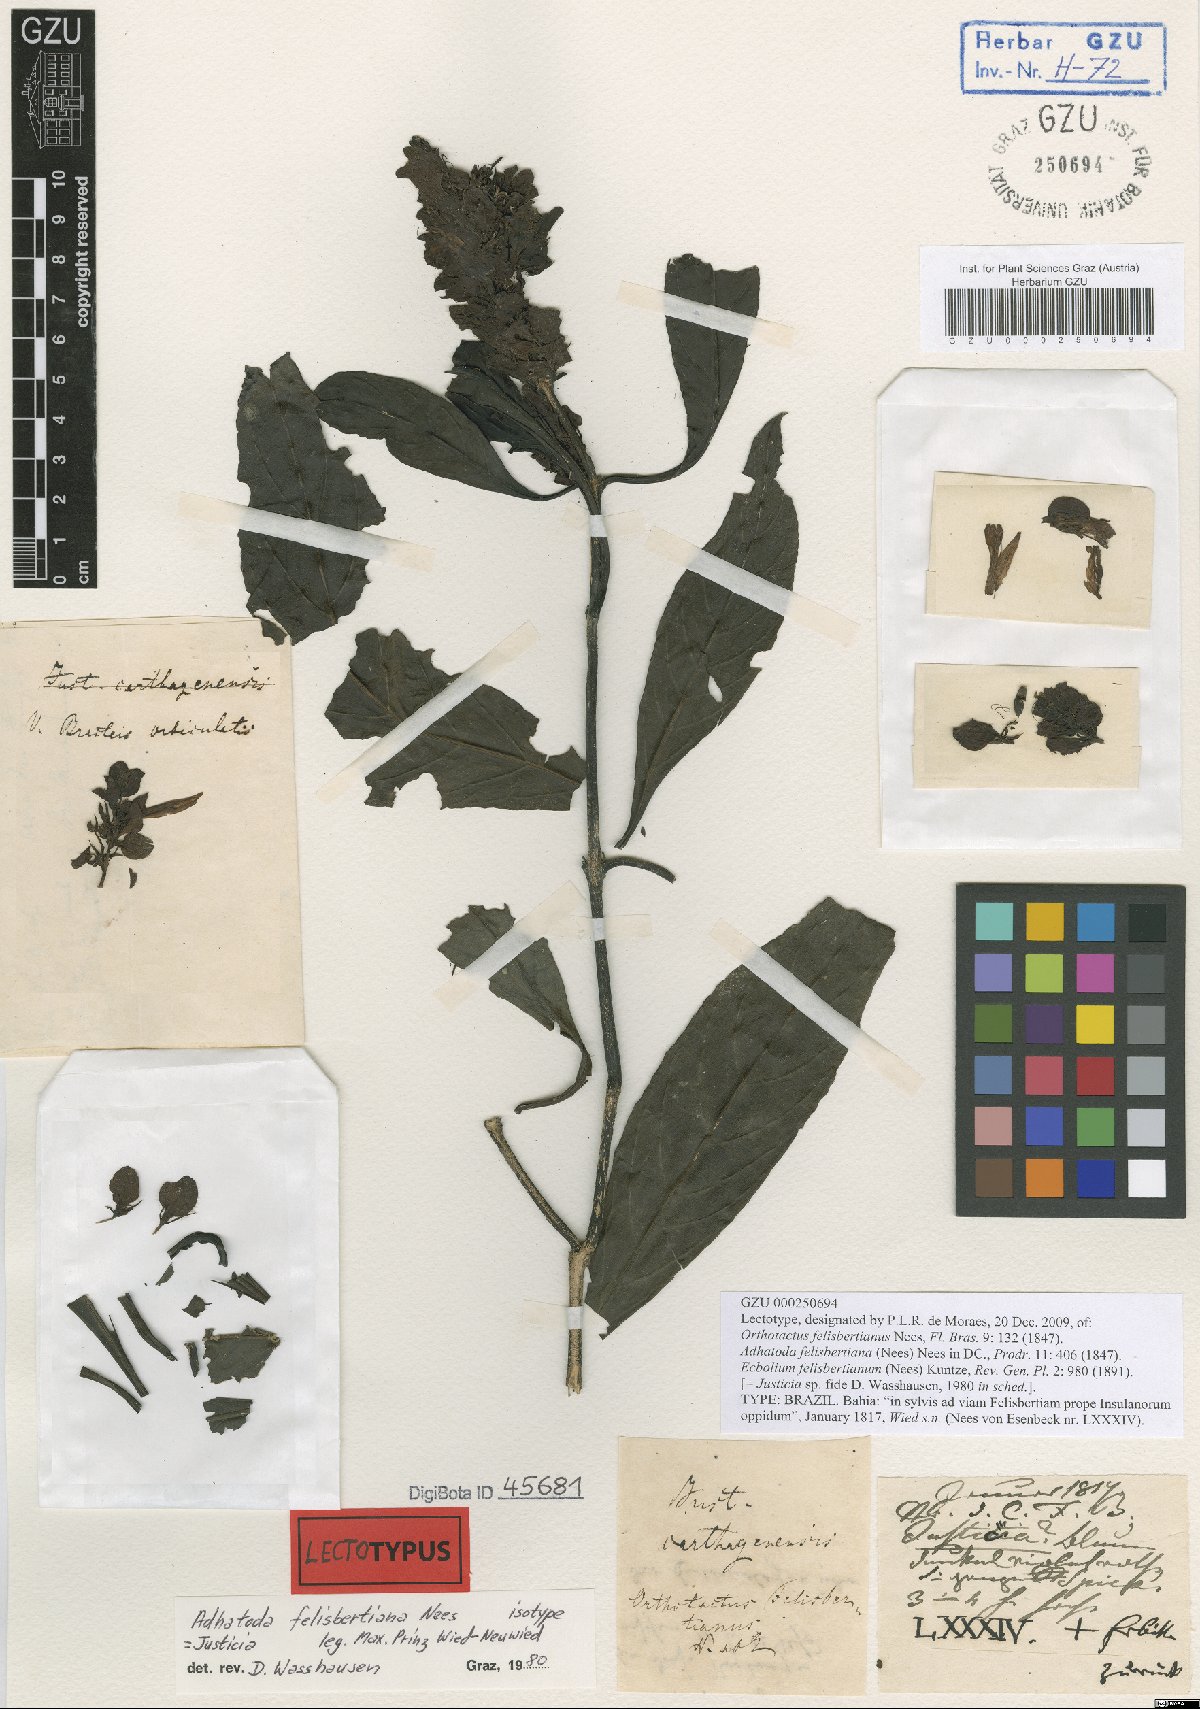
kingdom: Plantae
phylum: Tracheophyta
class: Magnoliopsida
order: Lamiales
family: Acanthaceae
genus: Justicia
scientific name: Justicia carthaginensis
